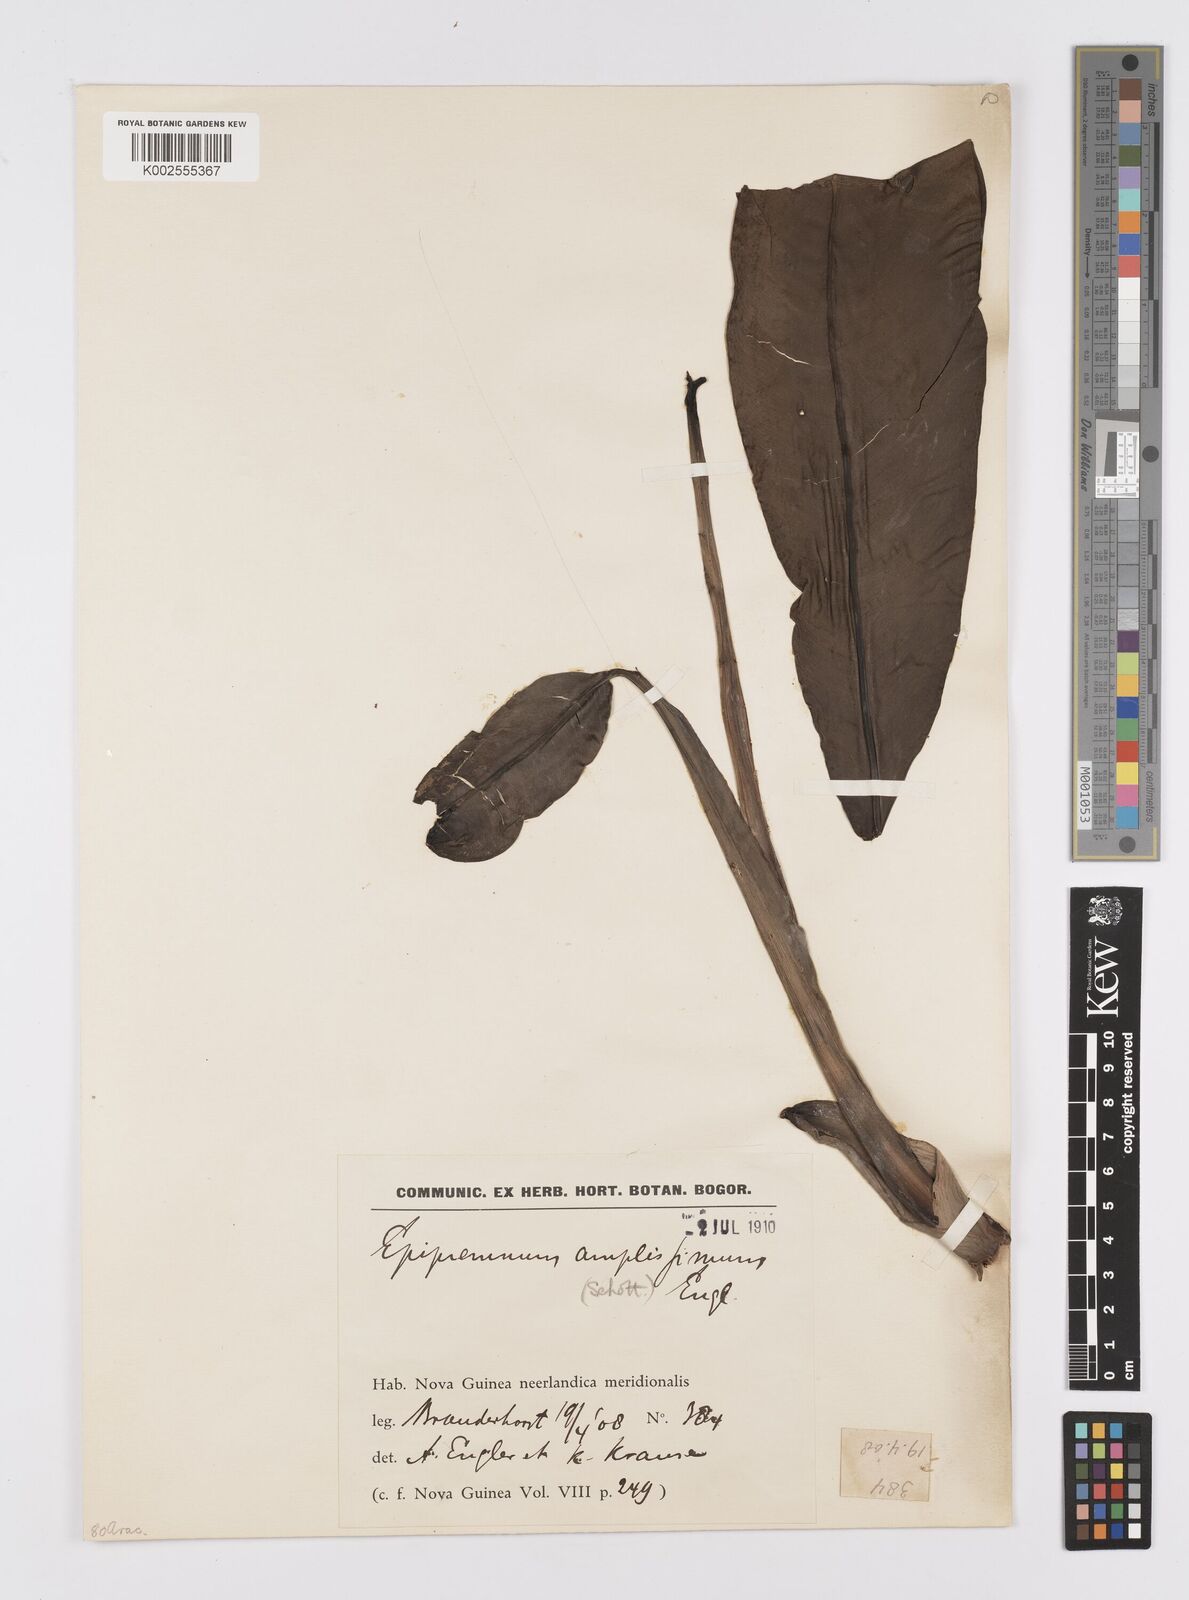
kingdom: Plantae
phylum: Tracheophyta
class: Liliopsida
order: Alismatales
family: Araceae
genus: Epipremnum
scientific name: Epipremnum amplissimum
